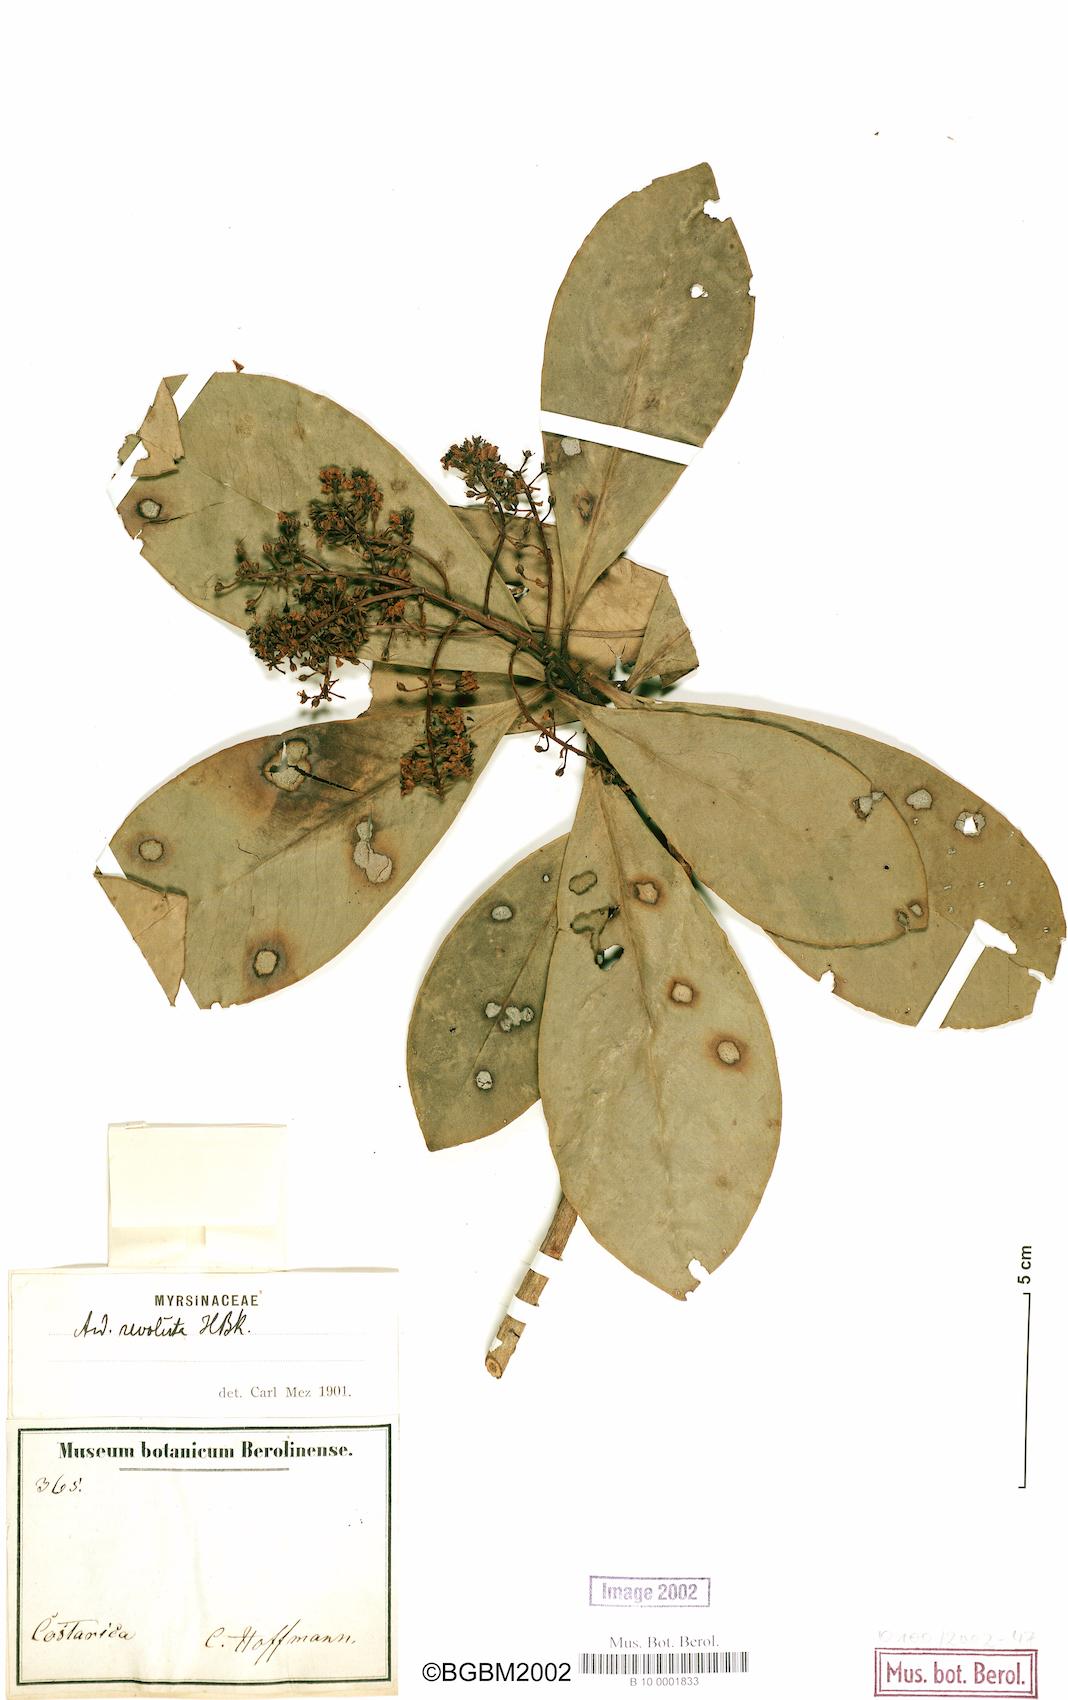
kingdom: Plantae
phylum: Tracheophyta
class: Magnoliopsida
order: Ericales
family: Primulaceae
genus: Ardisia
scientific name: Ardisia revoluta
